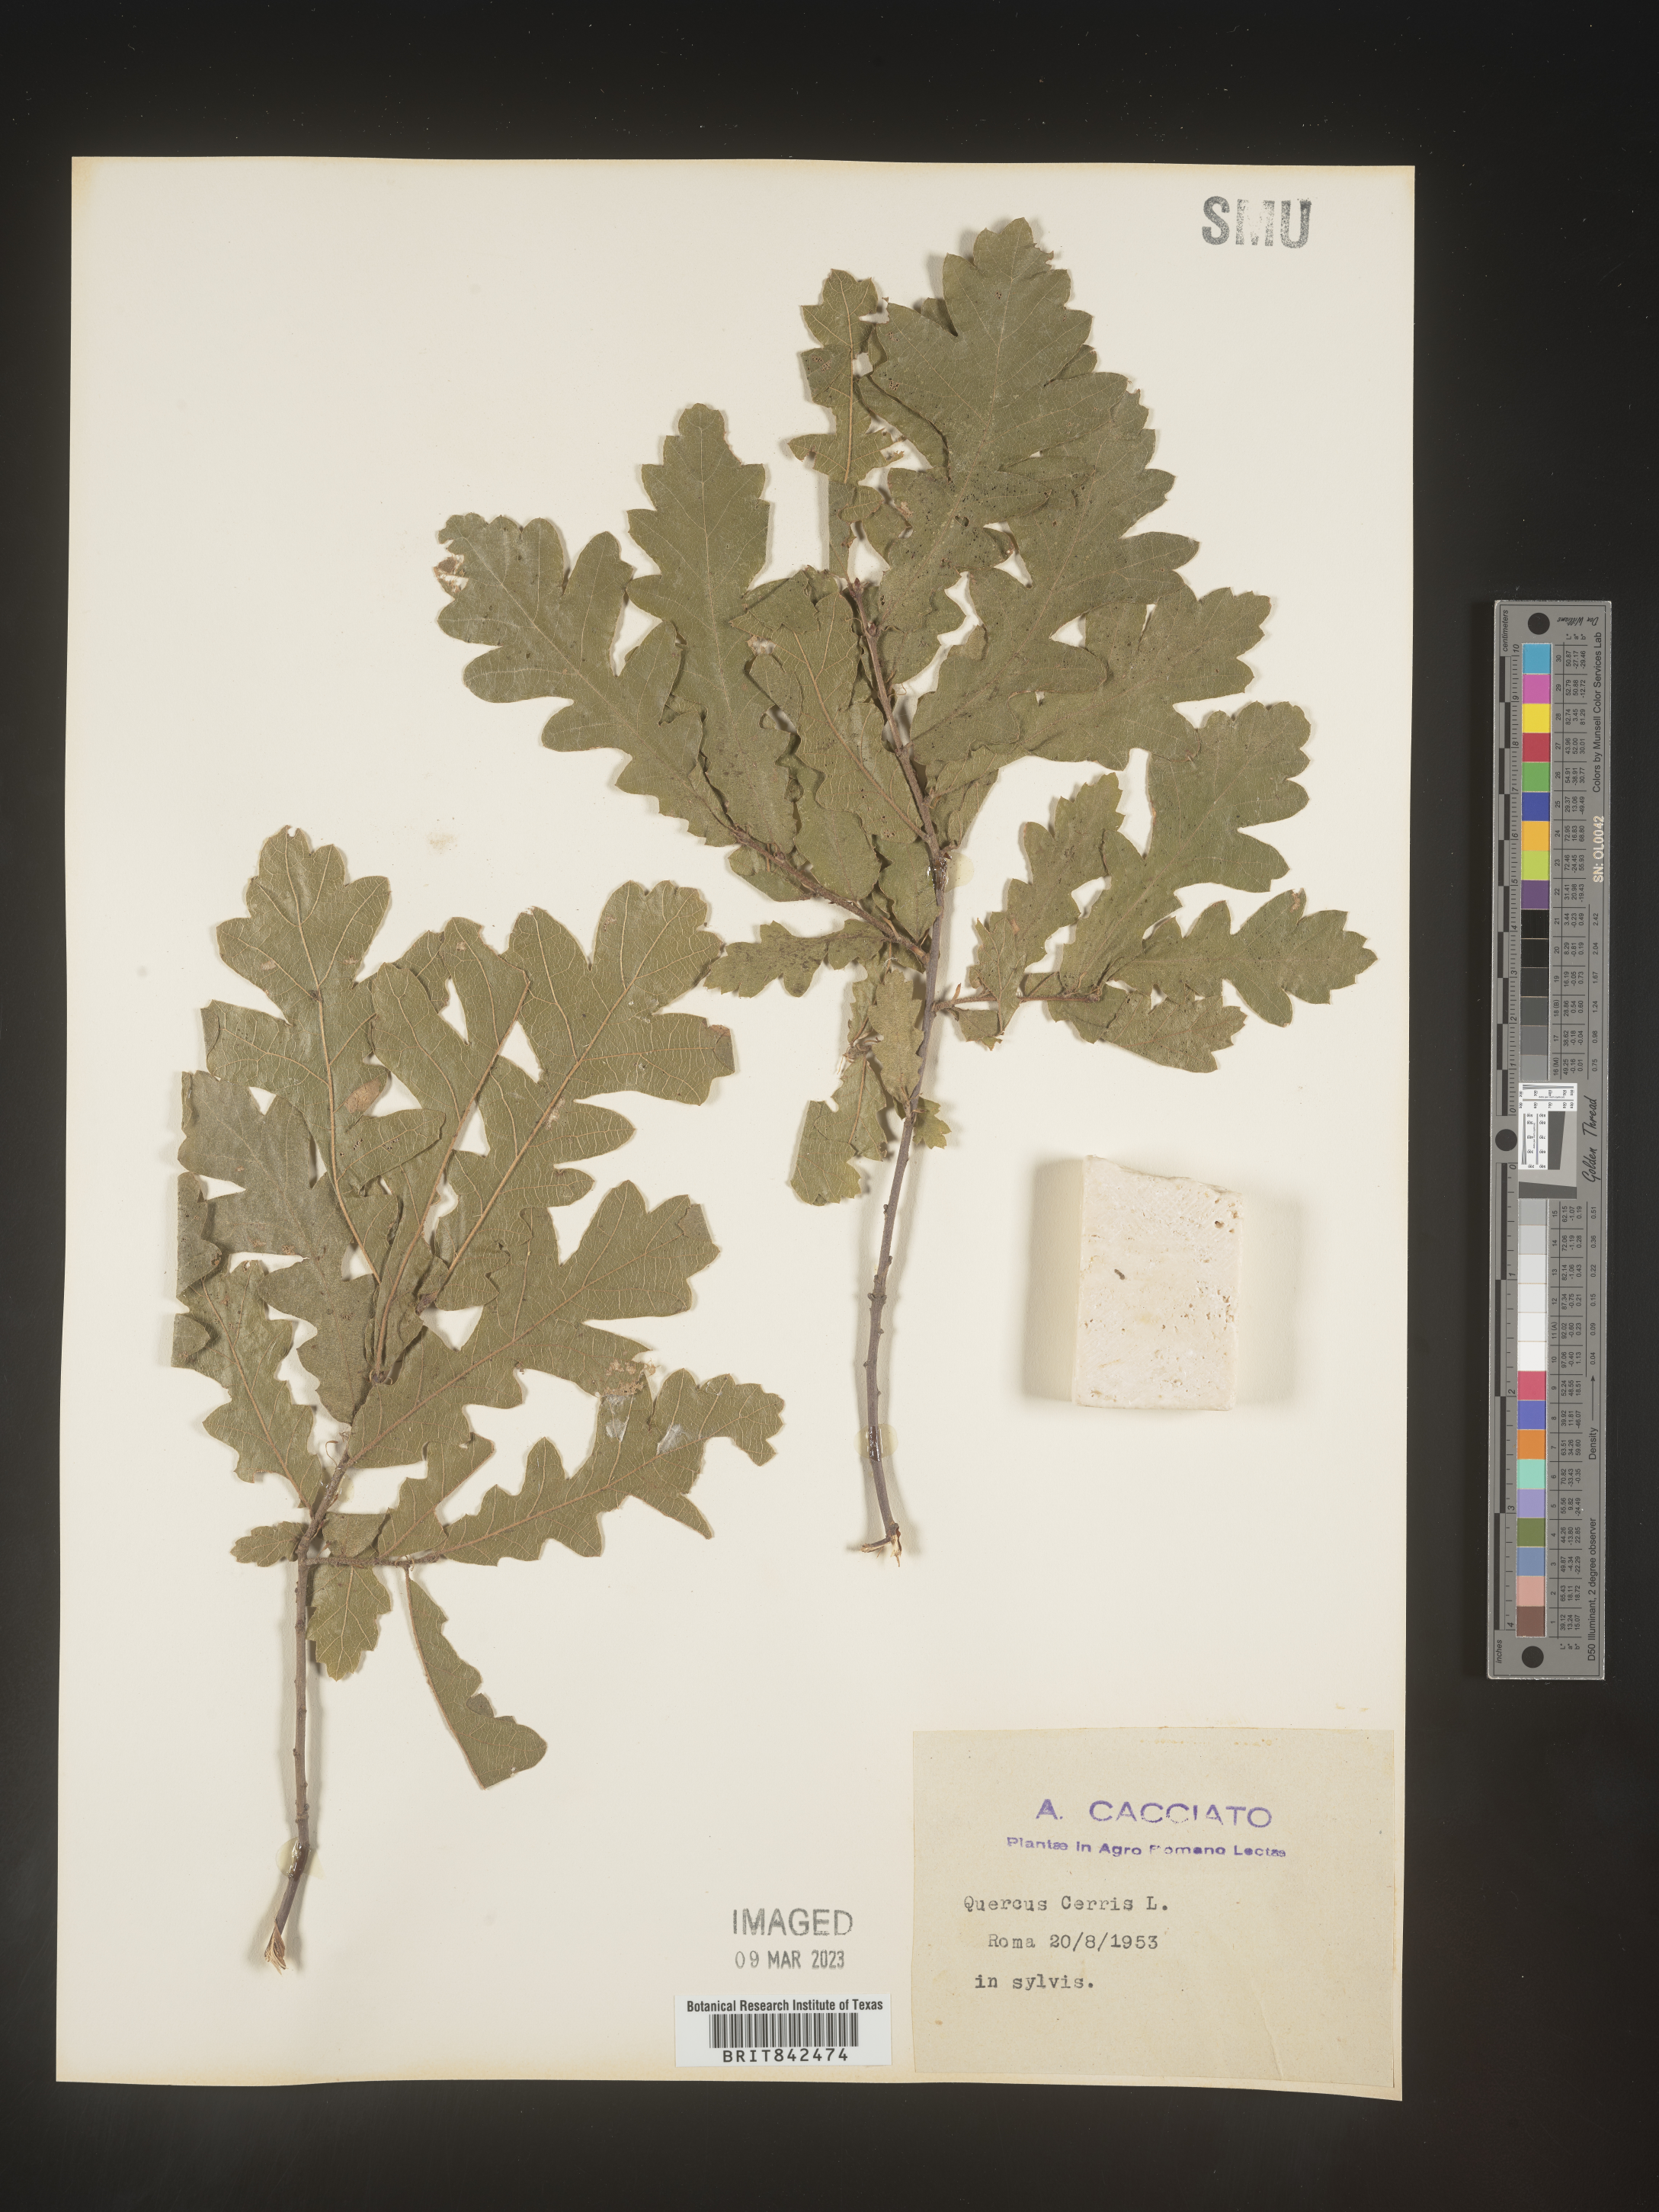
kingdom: Plantae
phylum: Tracheophyta
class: Magnoliopsida
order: Fagales
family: Fagaceae
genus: Quercus
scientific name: Quercus
